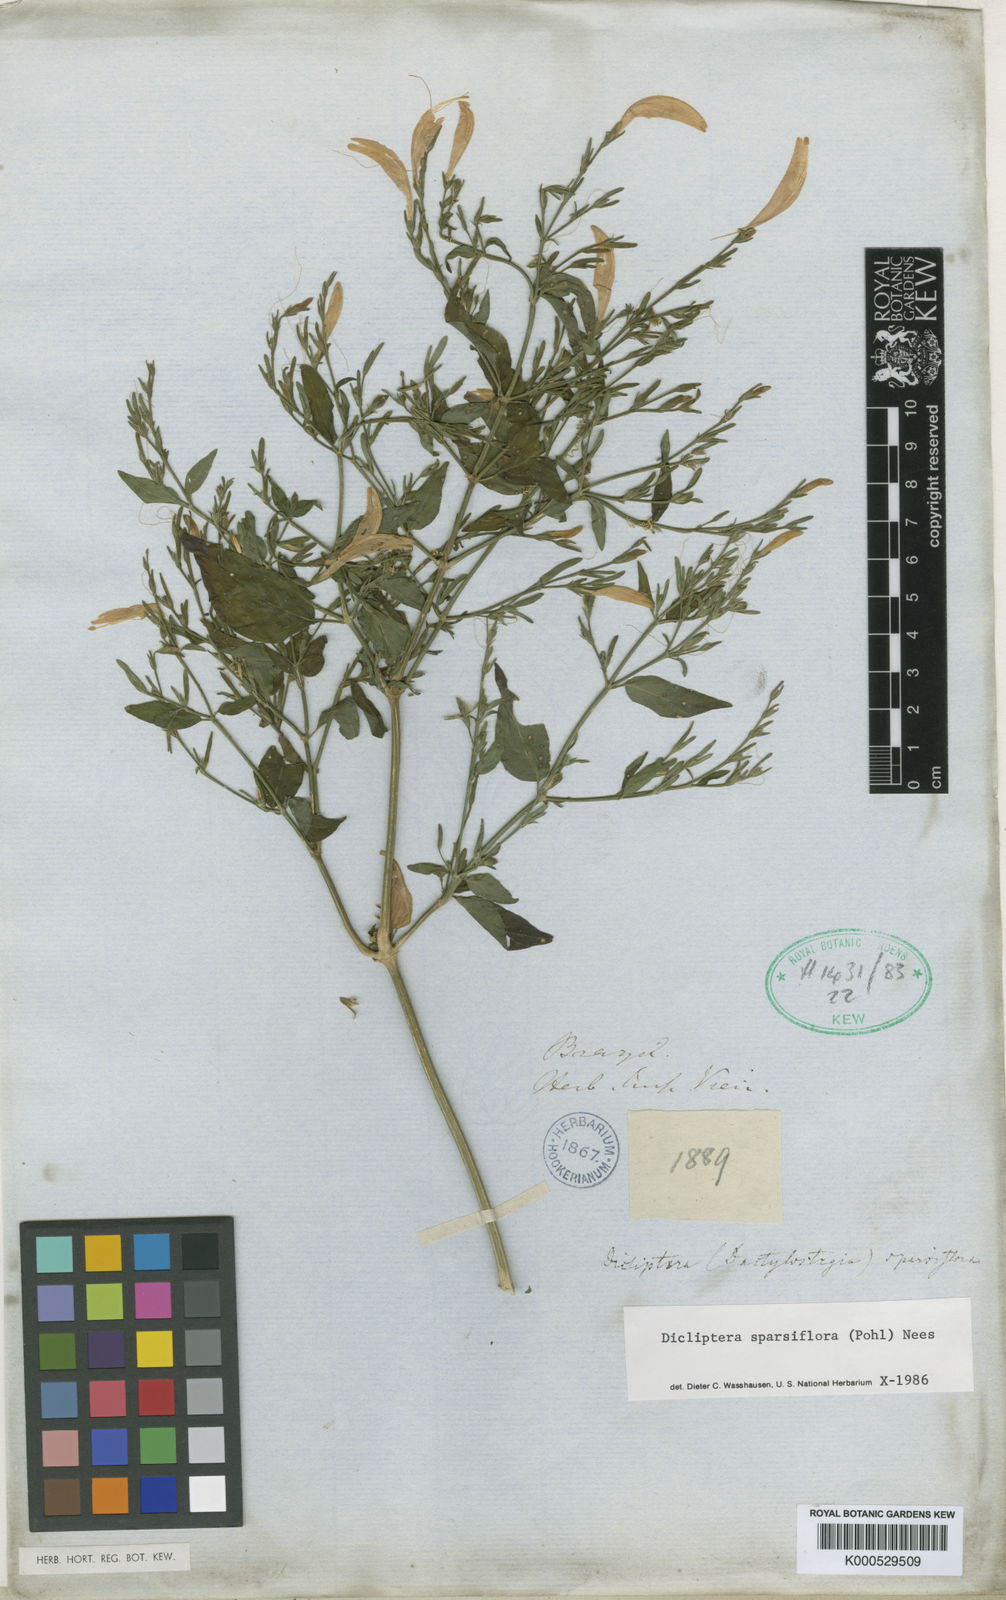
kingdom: Plantae
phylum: Tracheophyta
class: Magnoliopsida
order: Lamiales
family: Acanthaceae
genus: Dicliptera
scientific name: Dicliptera sparsiflora
